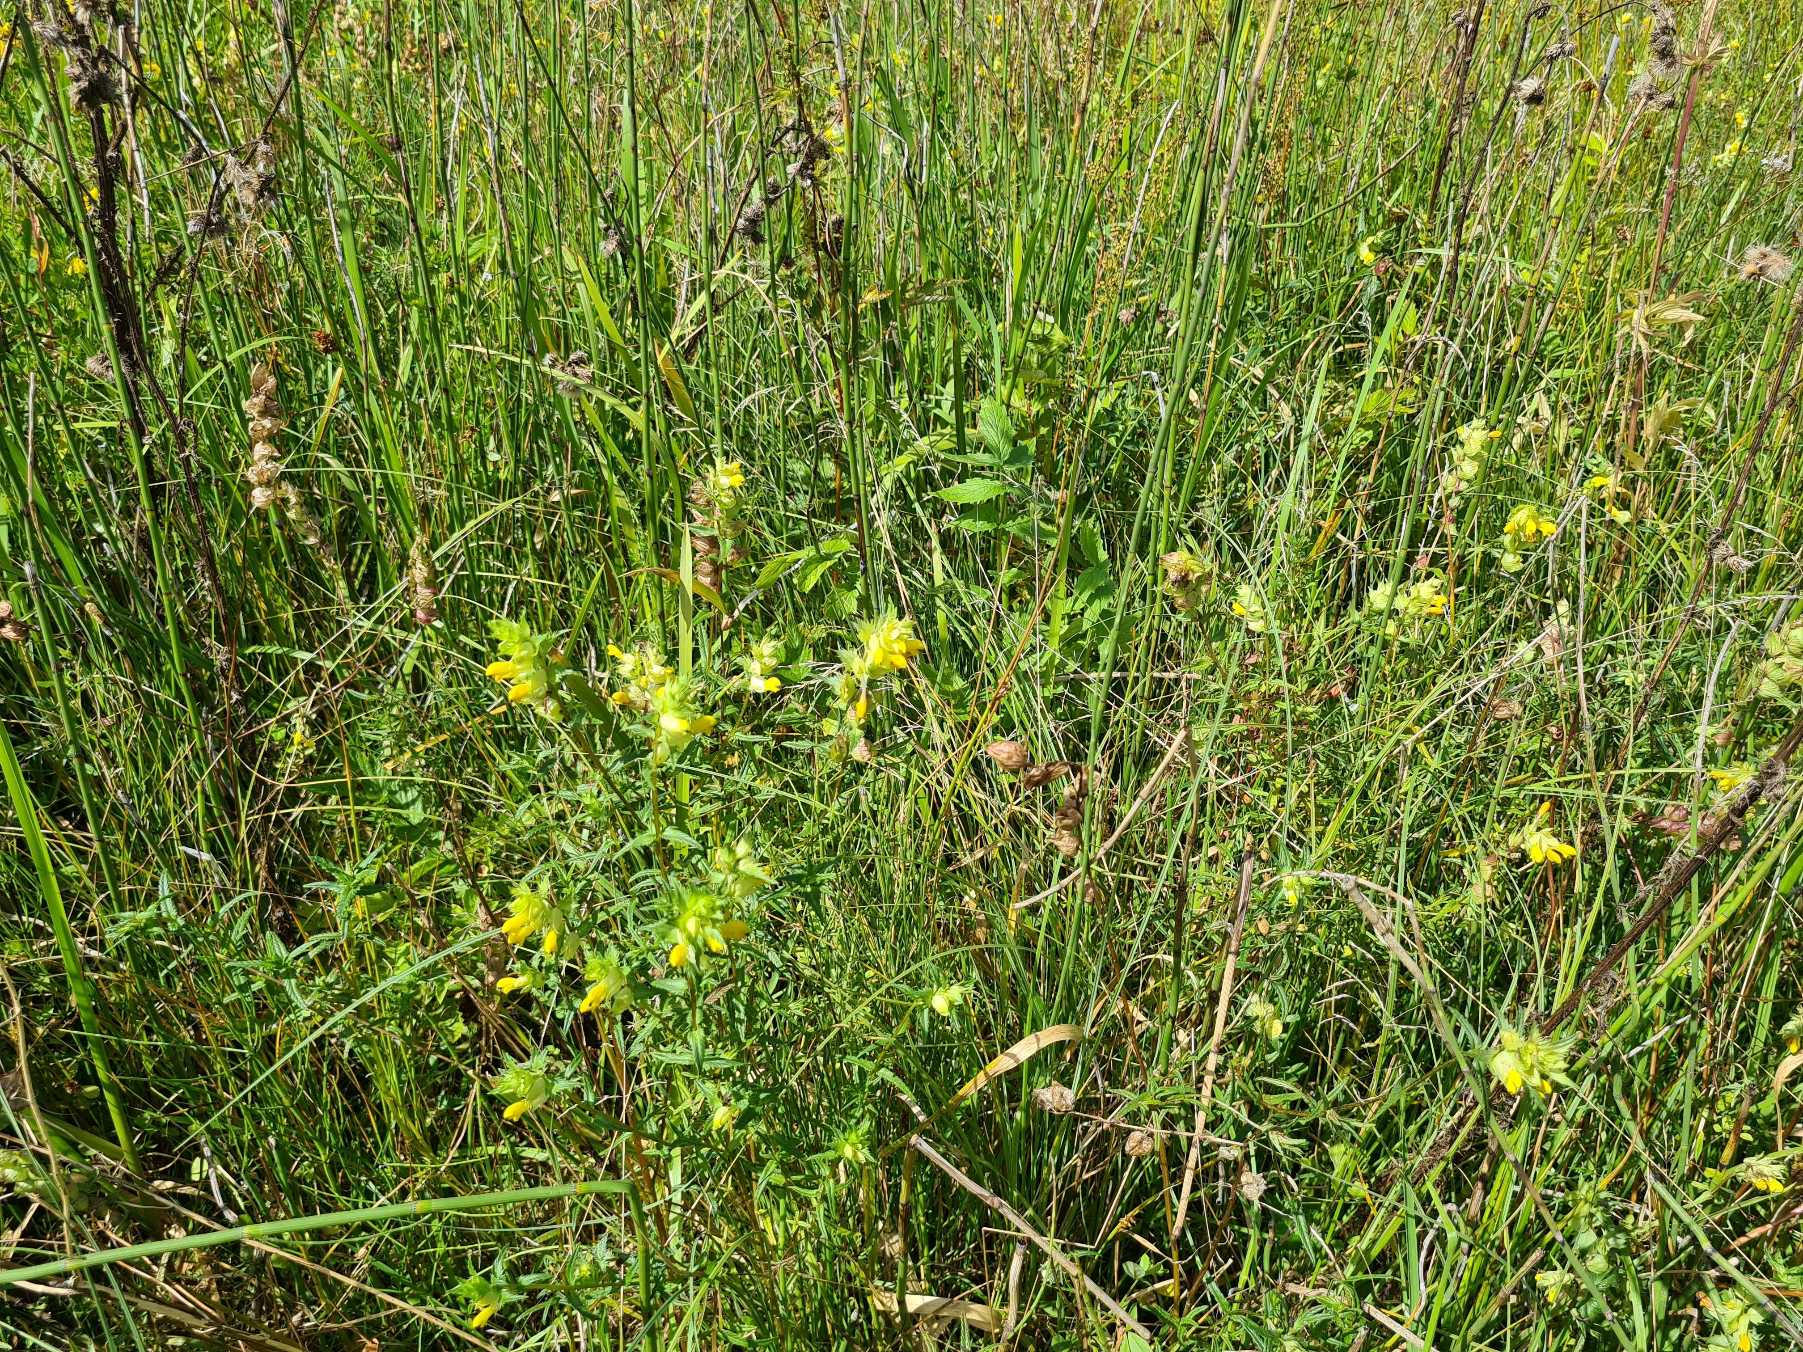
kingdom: Plantae
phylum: Tracheophyta
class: Magnoliopsida
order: Lamiales
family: Orobanchaceae
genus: Rhinanthus
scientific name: Rhinanthus
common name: Stor skjaller
